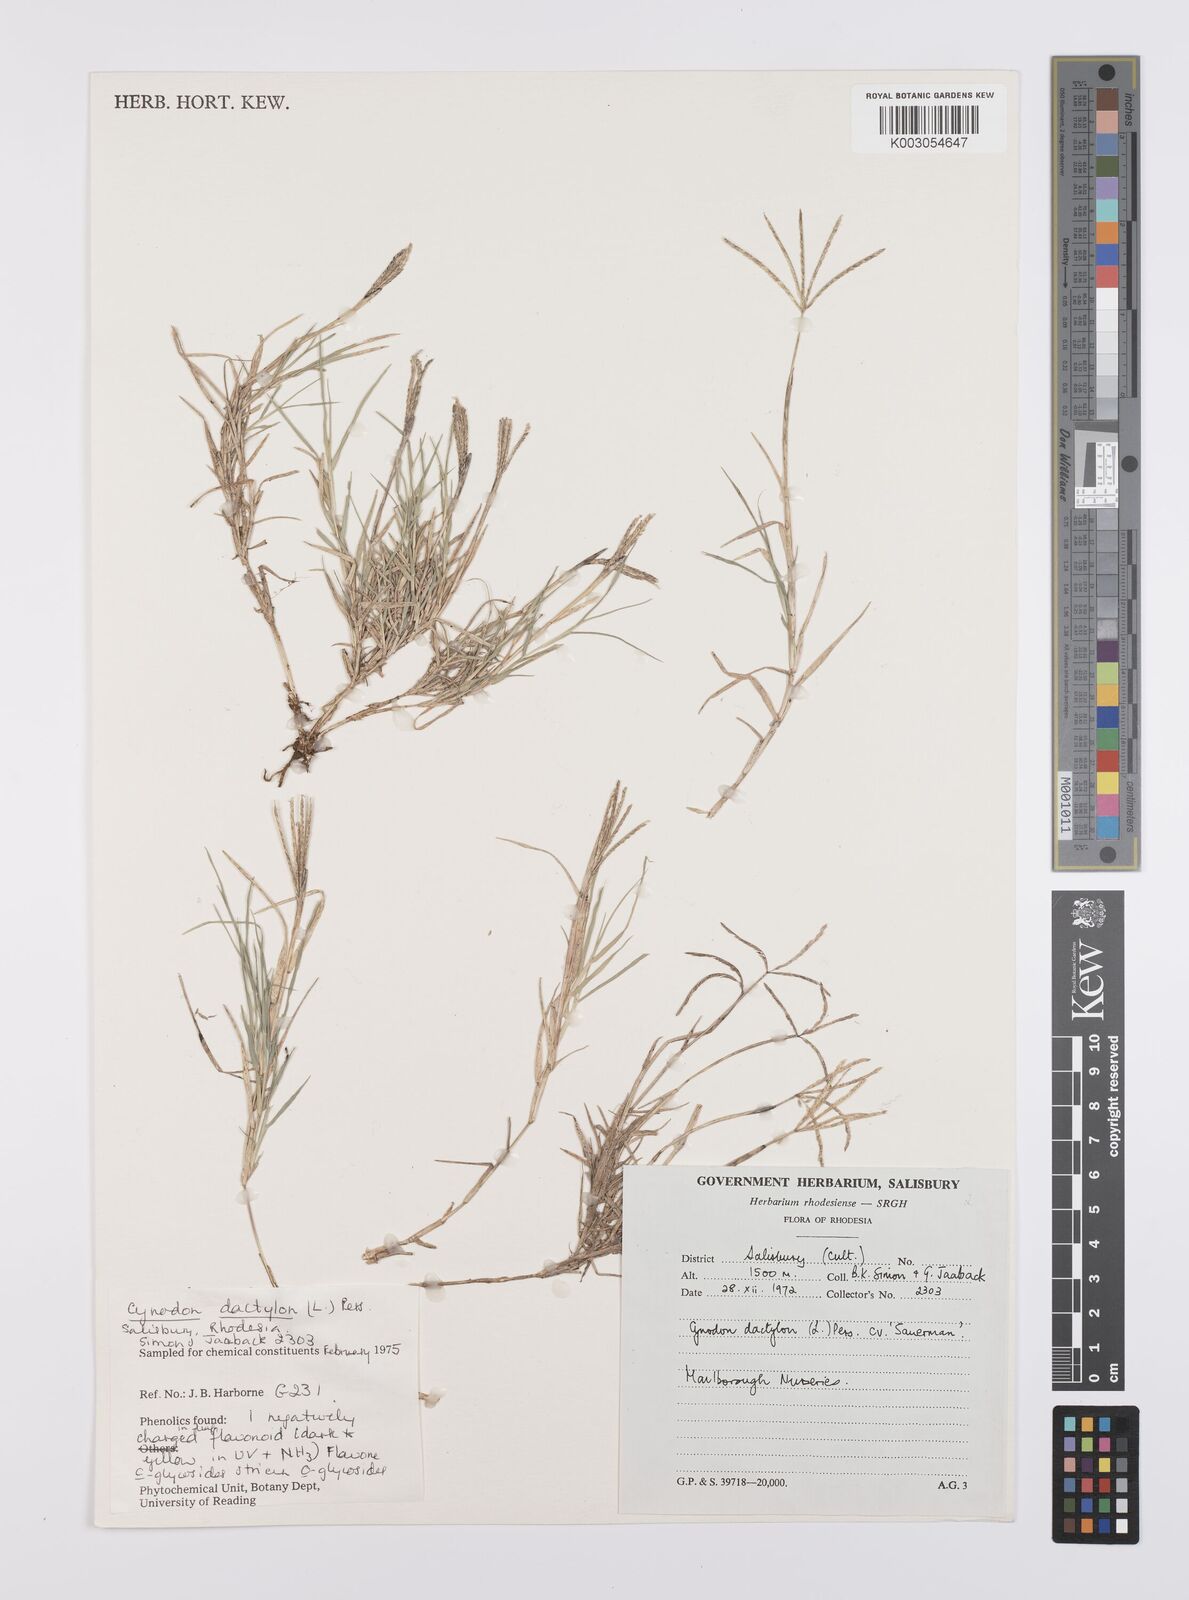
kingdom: Plantae
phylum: Tracheophyta
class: Liliopsida
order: Poales
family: Poaceae
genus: Cynodon
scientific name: Cynodon dactylon
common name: Bermuda grass
